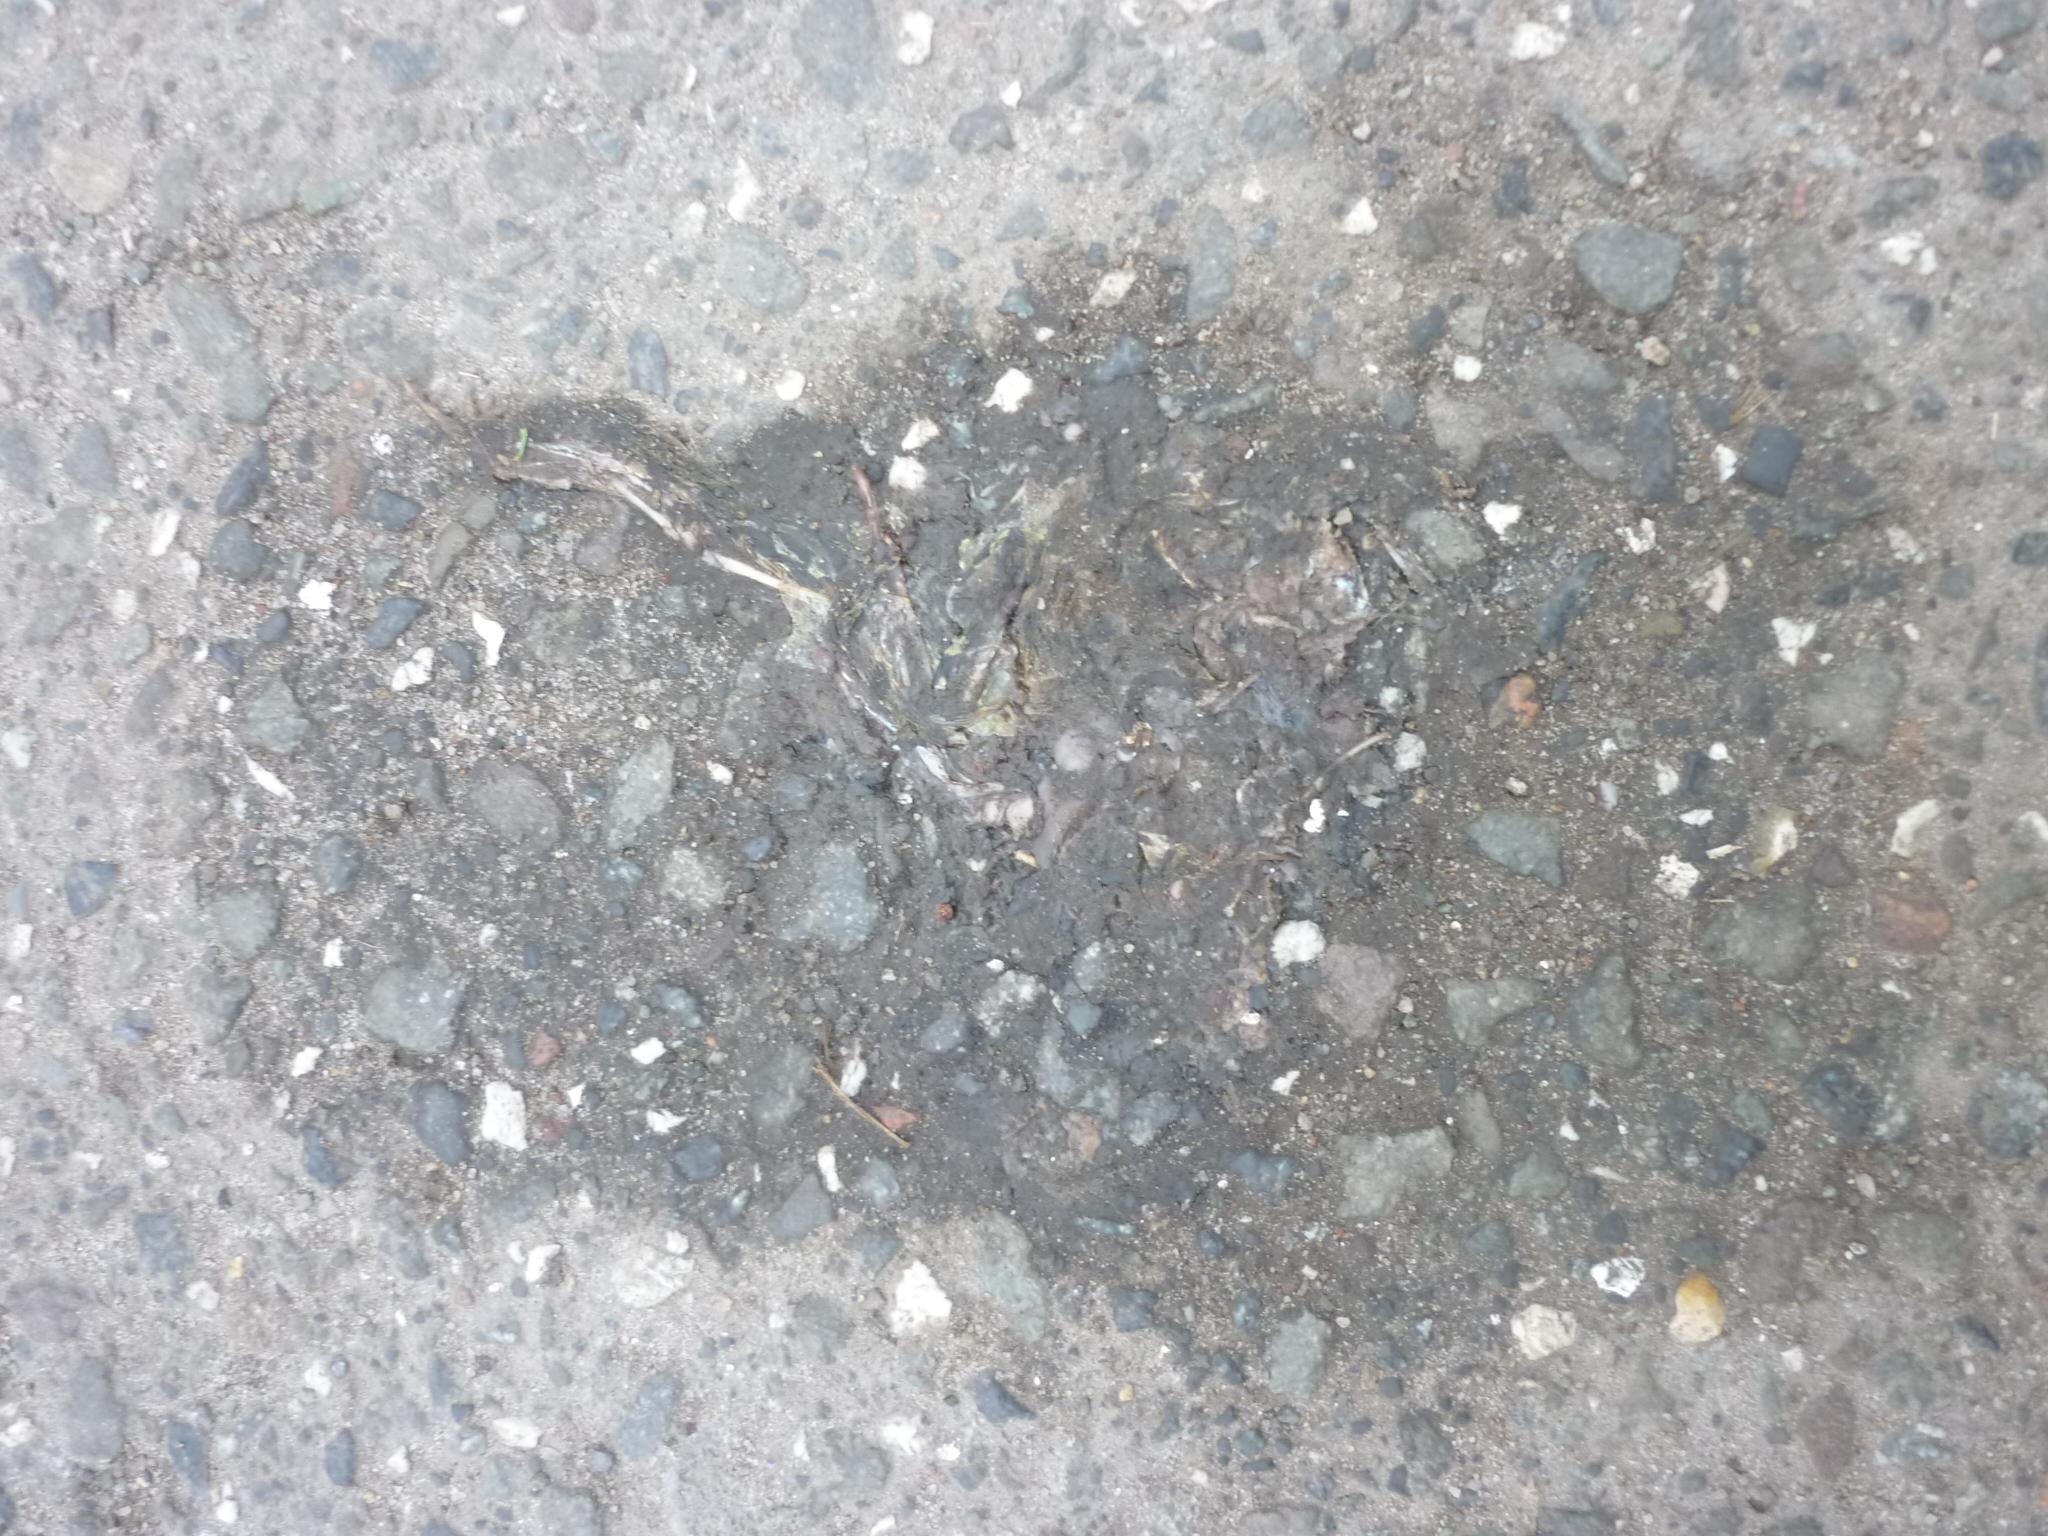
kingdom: Animalia
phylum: Chordata
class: Amphibia
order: Anura
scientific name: Anura
